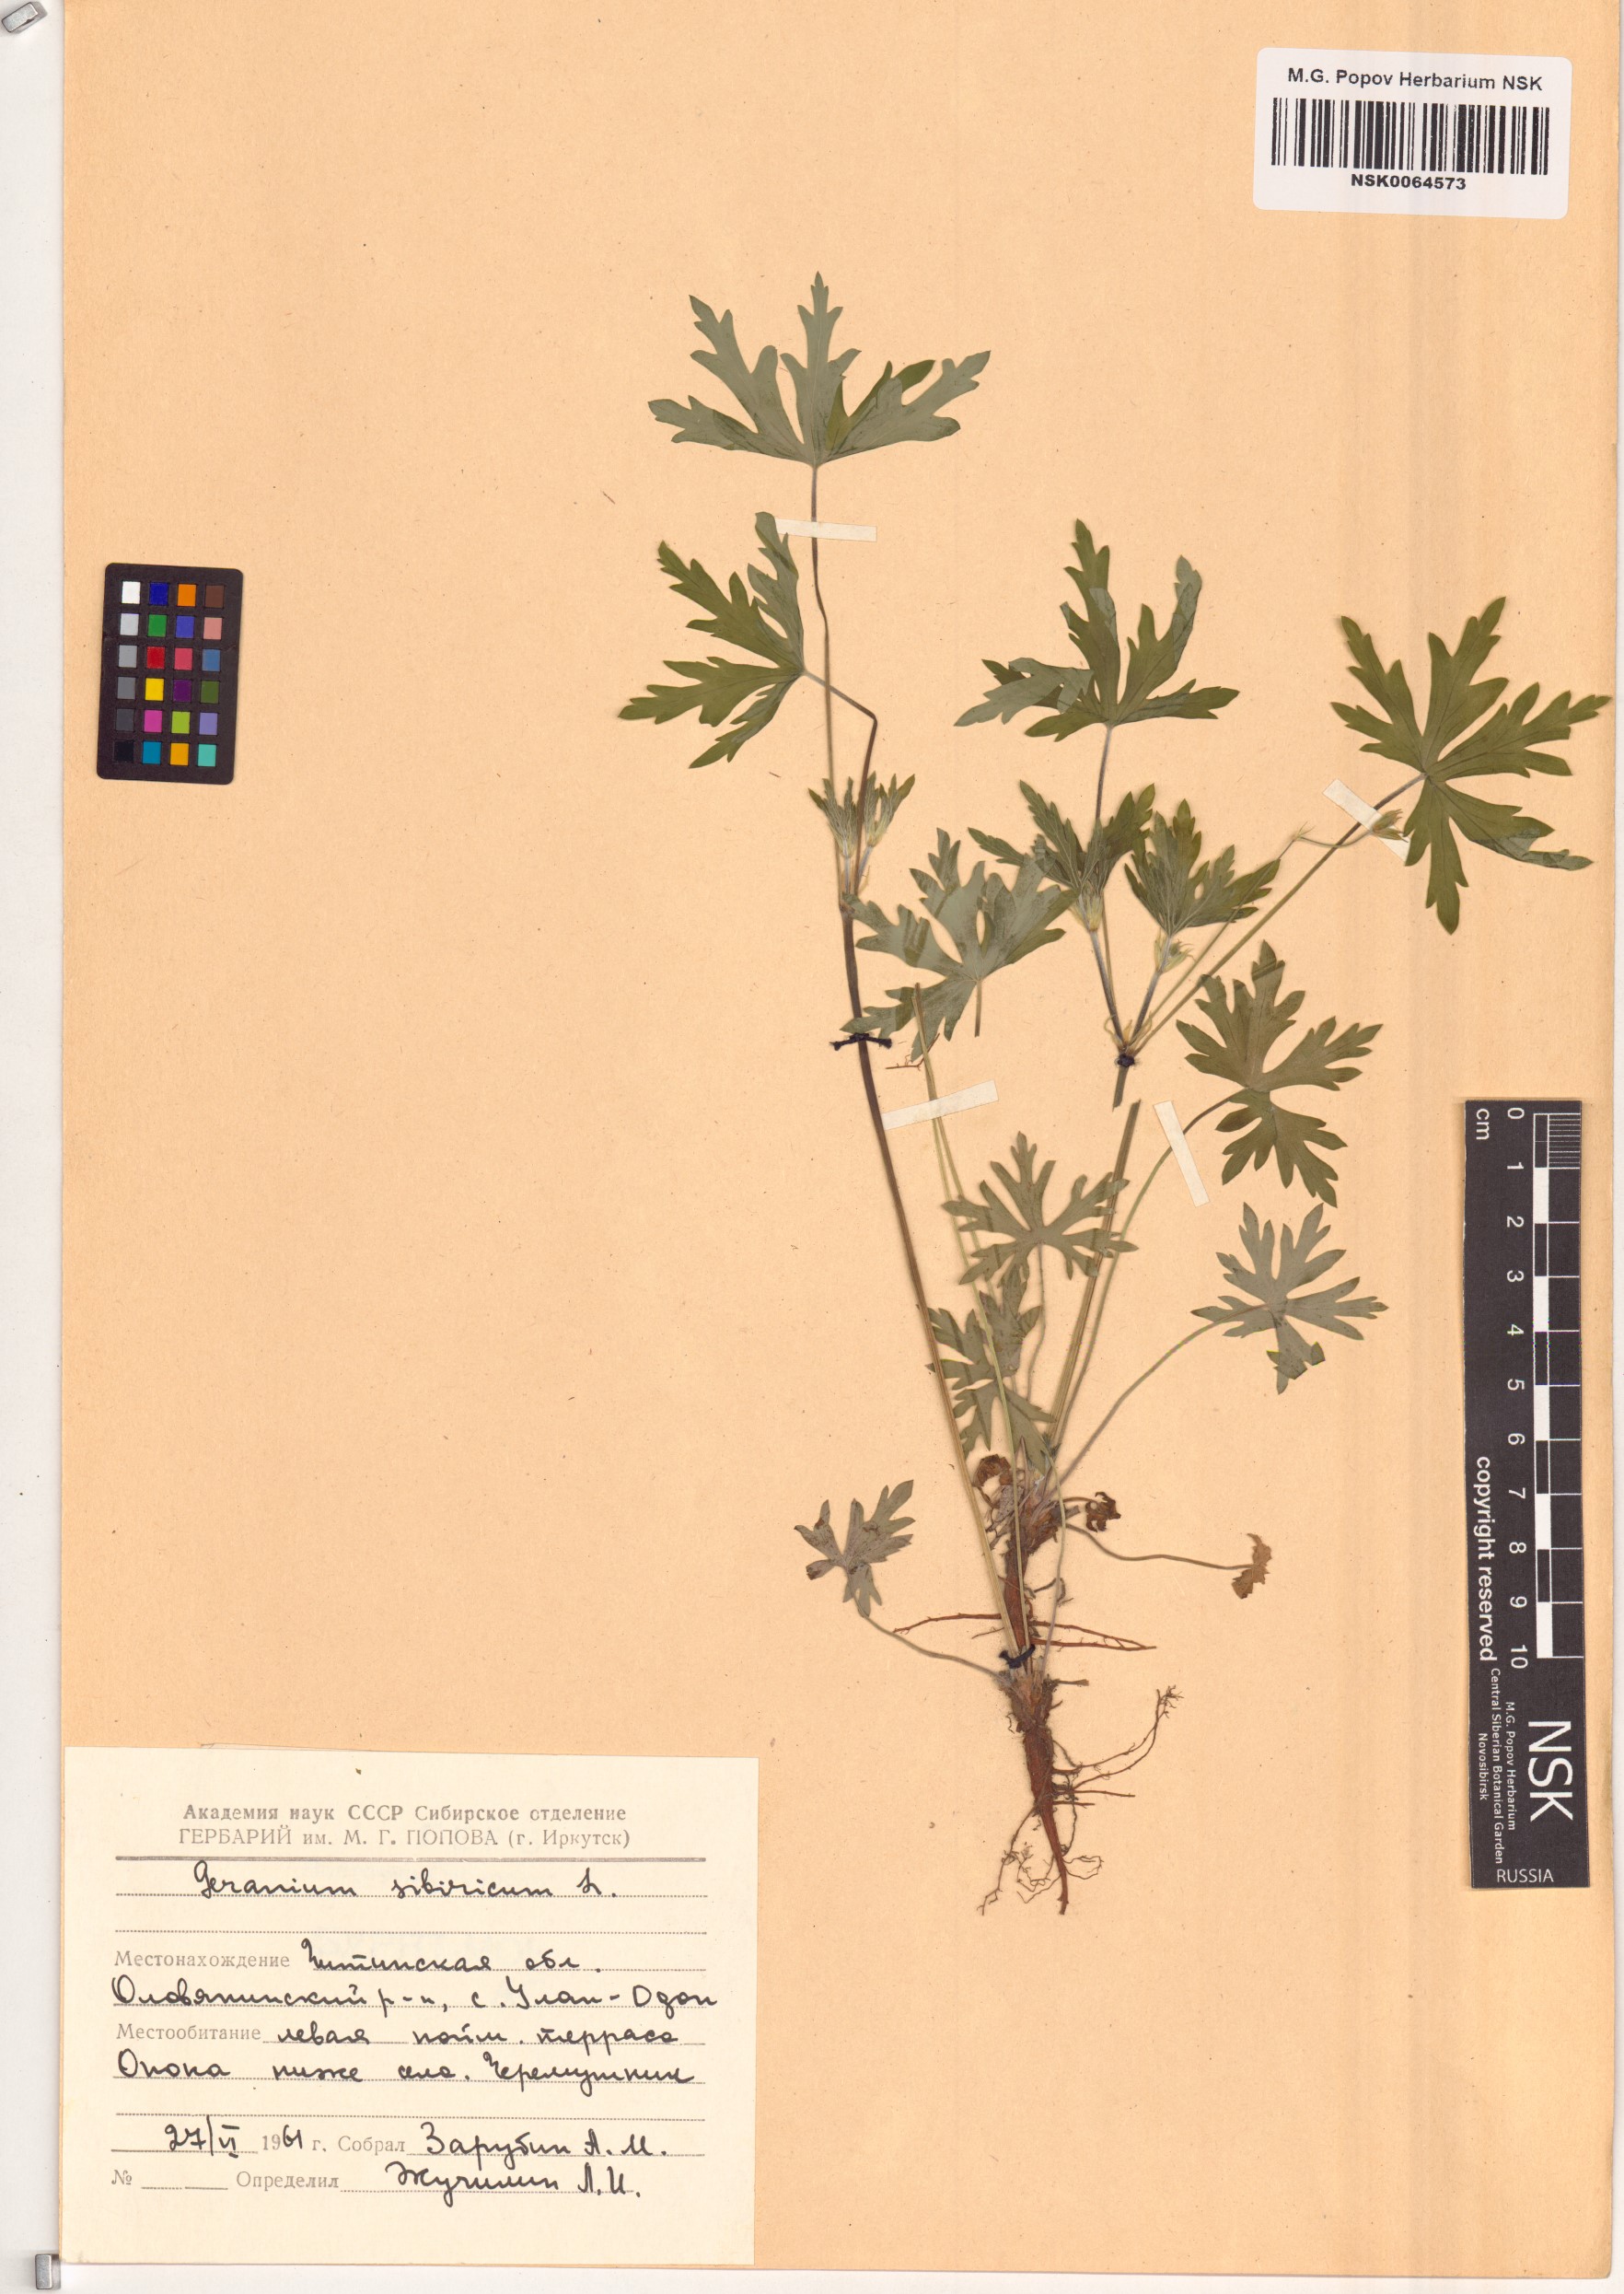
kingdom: Plantae
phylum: Tracheophyta
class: Magnoliopsida
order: Geraniales
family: Geraniaceae
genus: Geranium
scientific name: Geranium sibiricum
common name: Siberian crane's-bill
